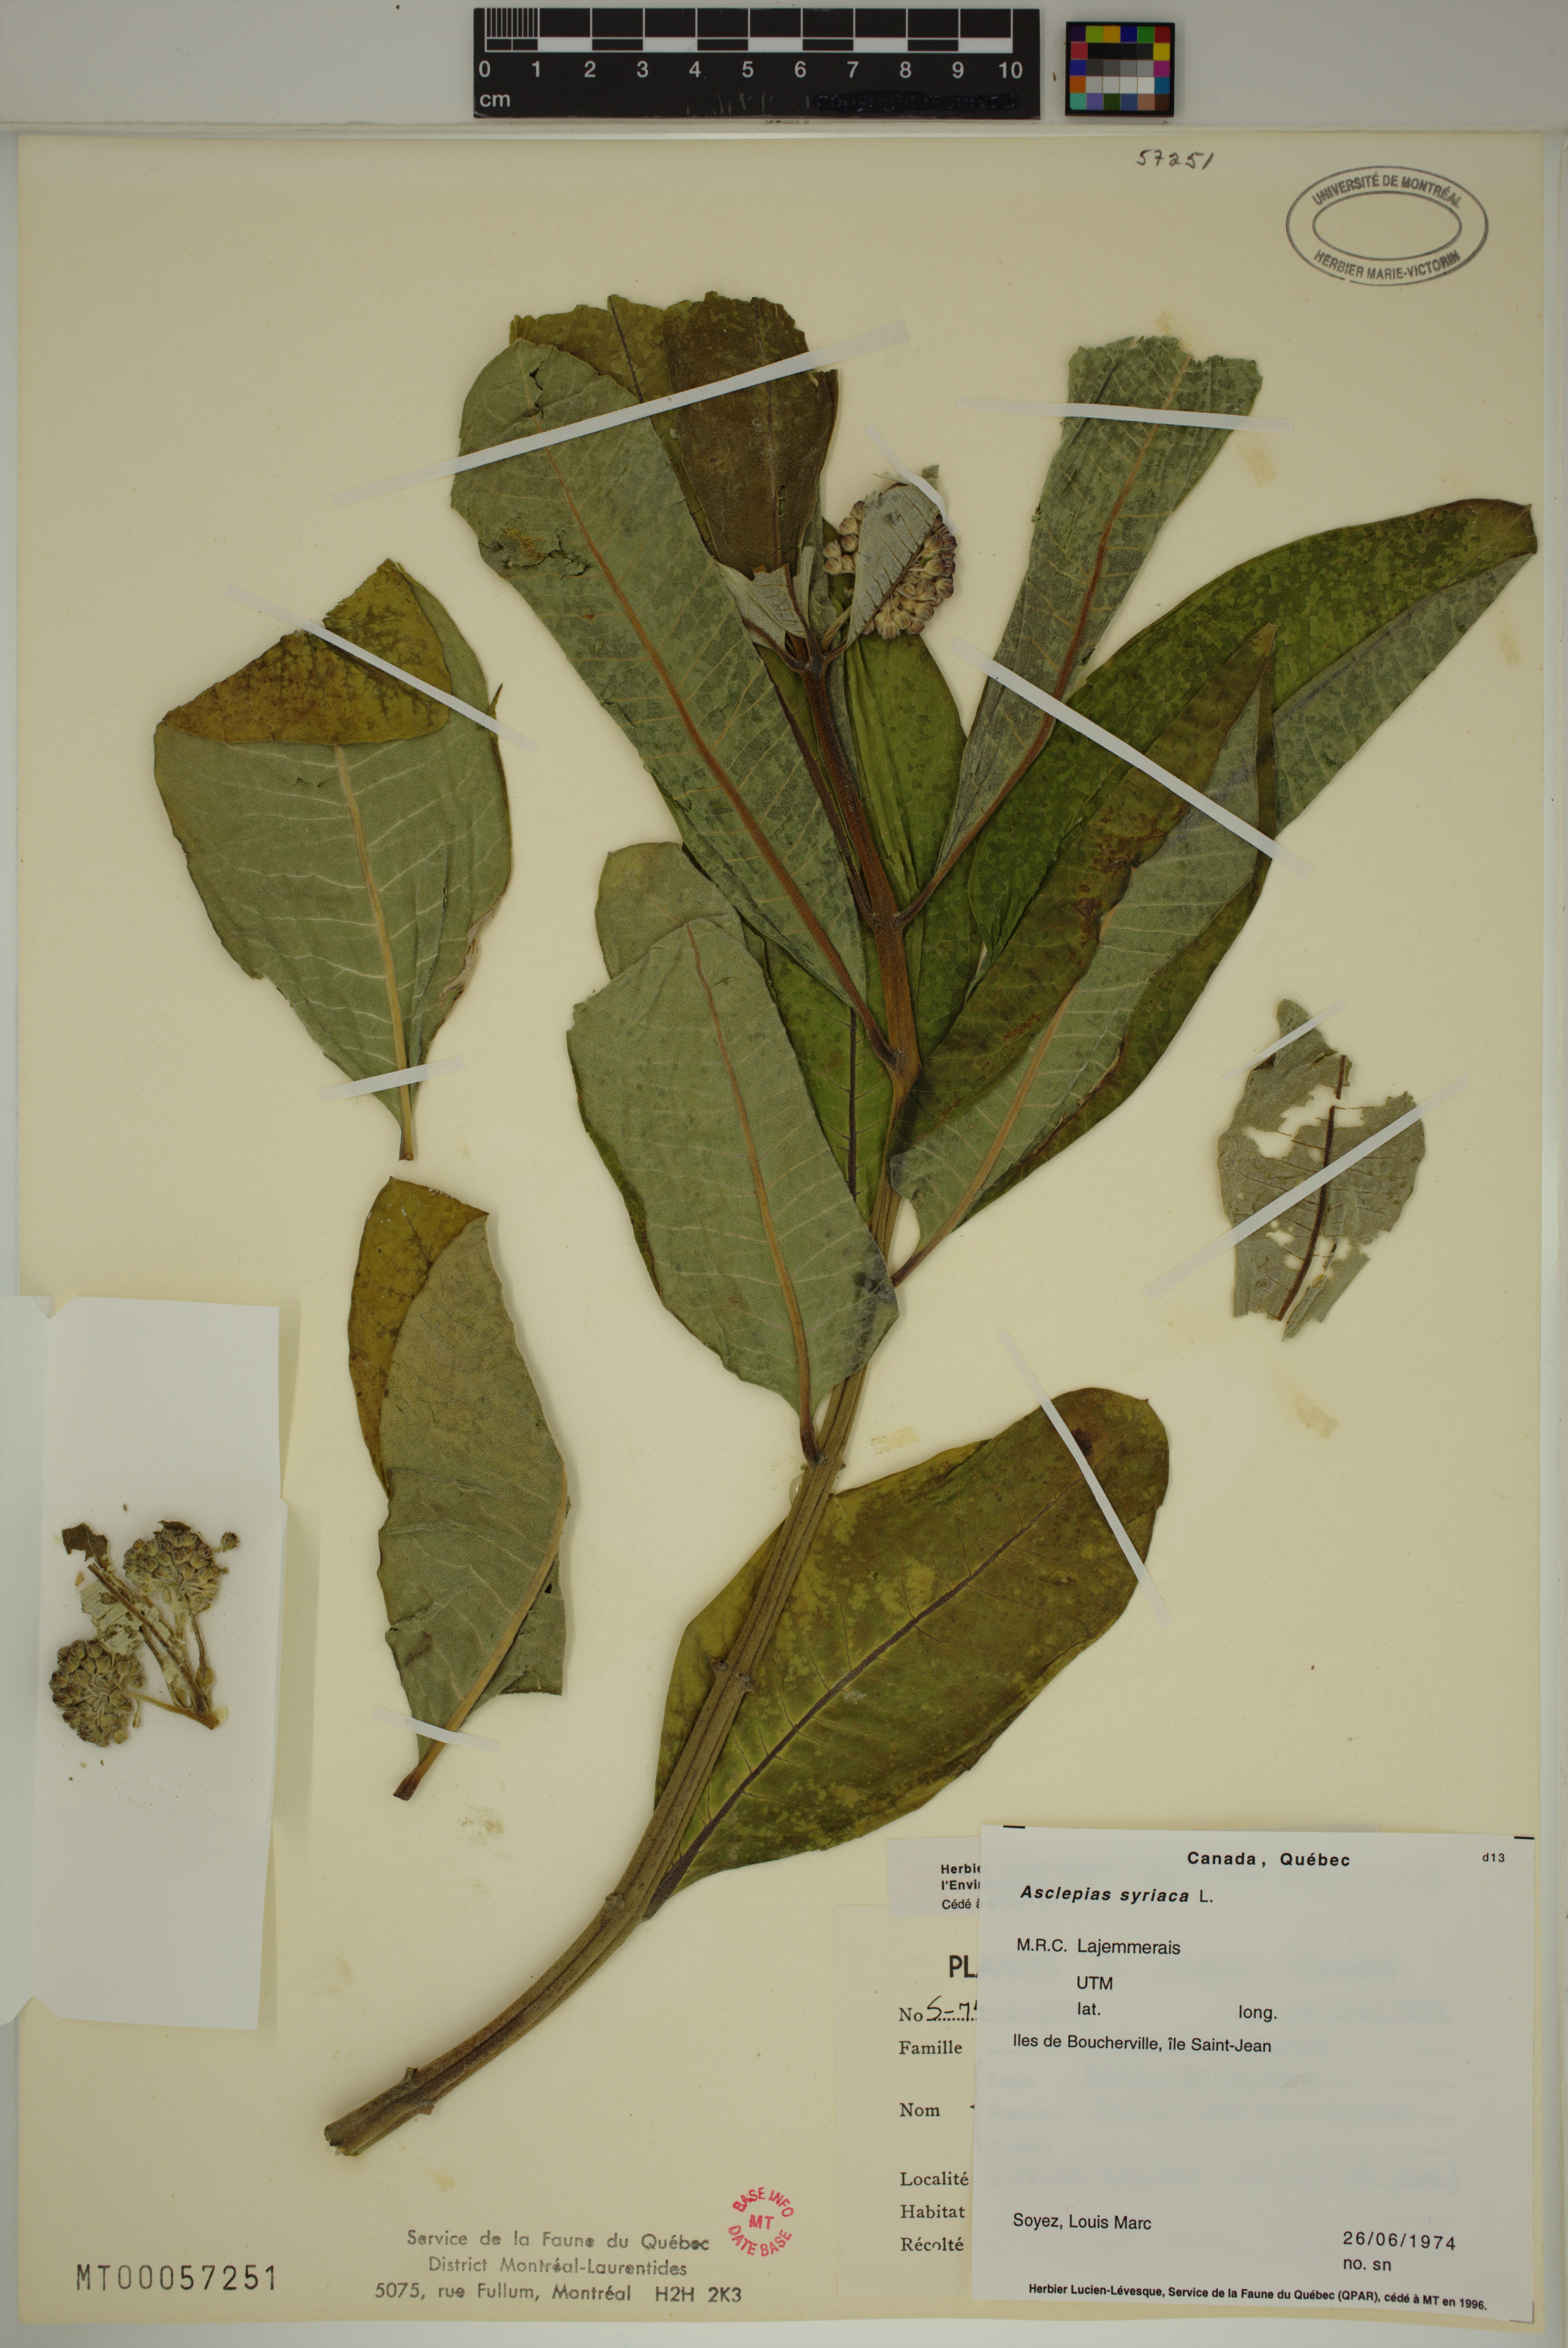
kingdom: Plantae
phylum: Tracheophyta
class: Magnoliopsida
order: Gentianales
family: Apocynaceae
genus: Asclepias
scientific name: Asclepias syriaca
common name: Common milkweed
